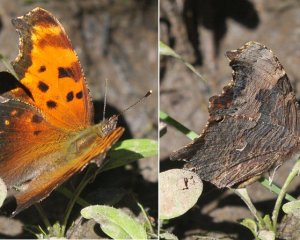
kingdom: Animalia
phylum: Arthropoda
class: Insecta
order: Lepidoptera
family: Nymphalidae
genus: Polygonia
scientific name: Polygonia progne
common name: Gray Comma
